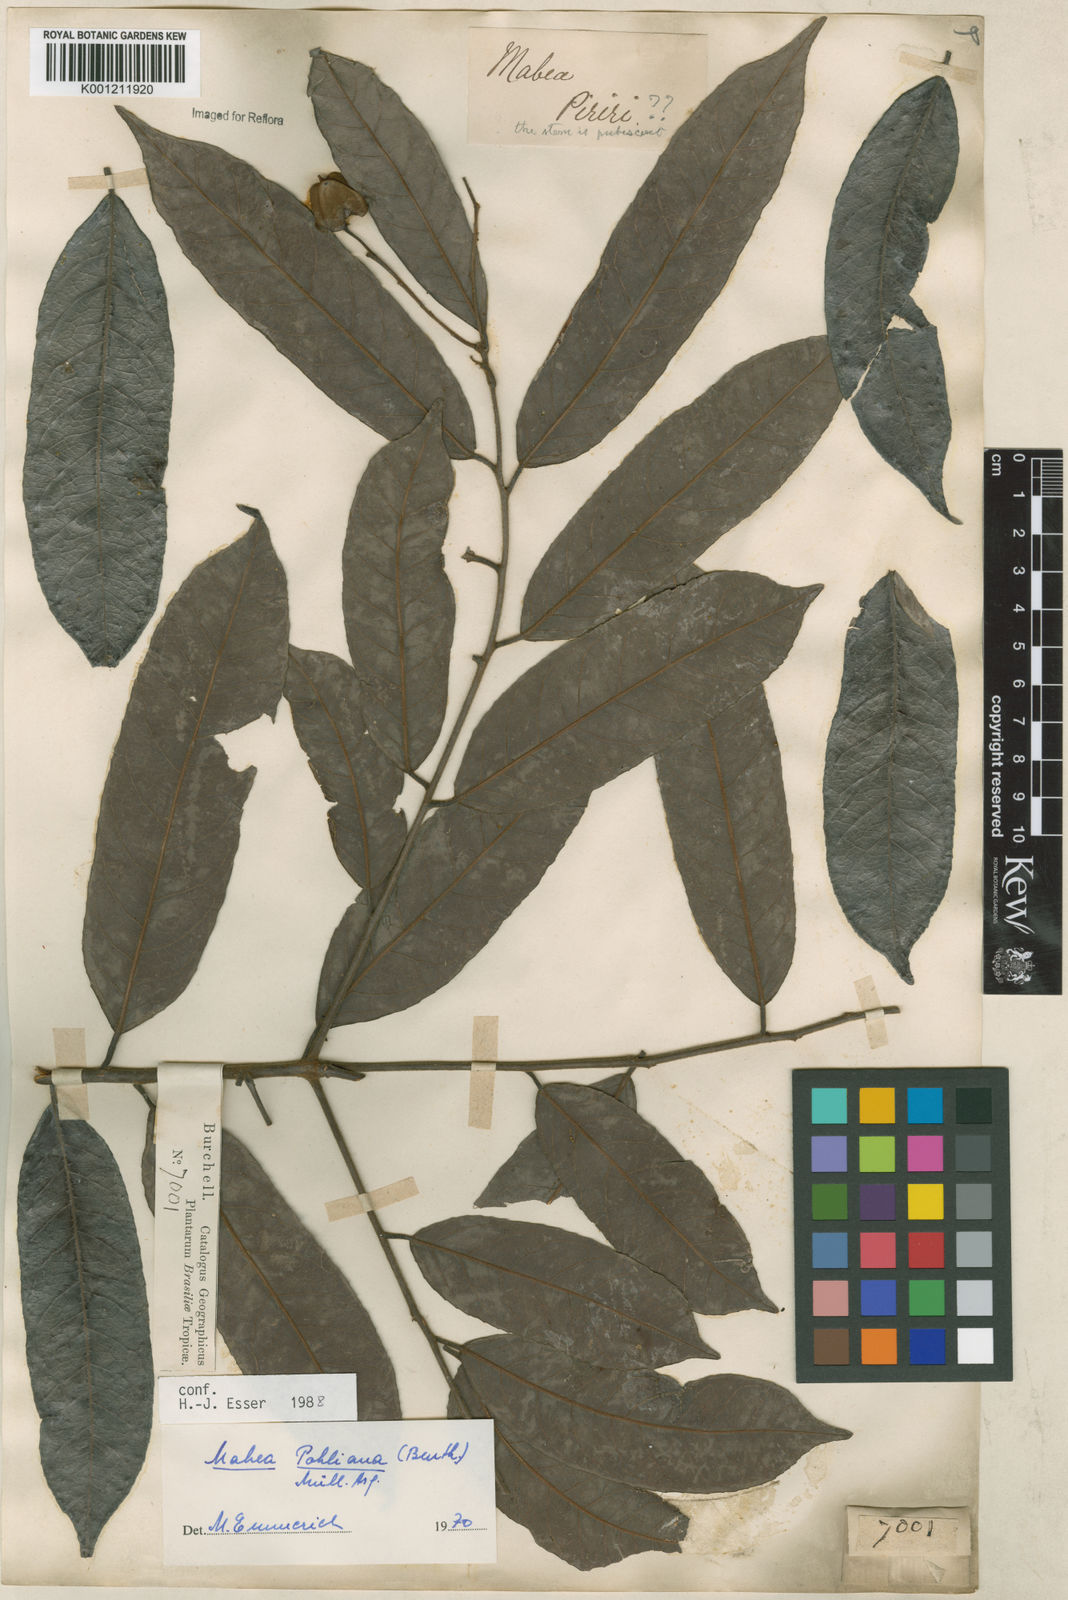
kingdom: Plantae
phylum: Tracheophyta
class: Magnoliopsida
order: Malpighiales
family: Euphorbiaceae
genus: Mabea
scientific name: Mabea
